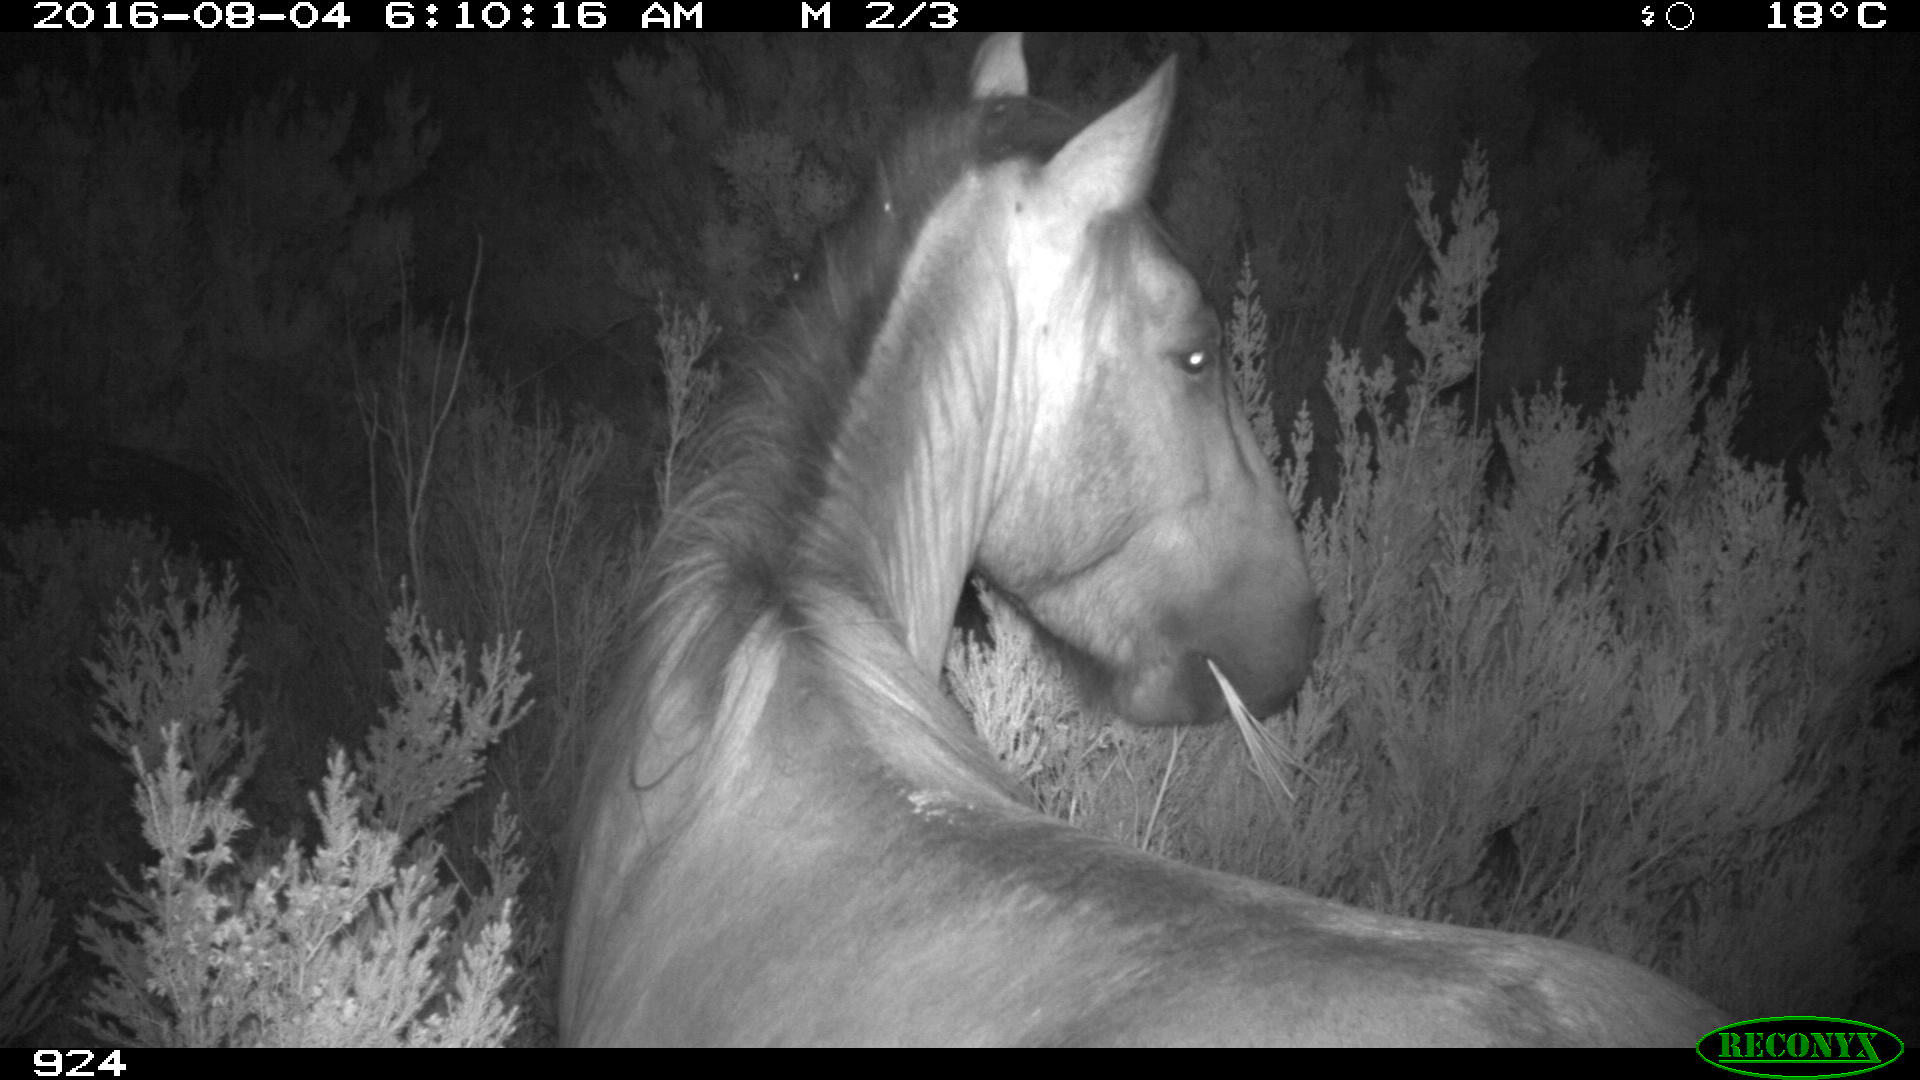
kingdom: Animalia
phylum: Chordata
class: Mammalia
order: Perissodactyla
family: Equidae
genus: Equus
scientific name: Equus caballus
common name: Horse
